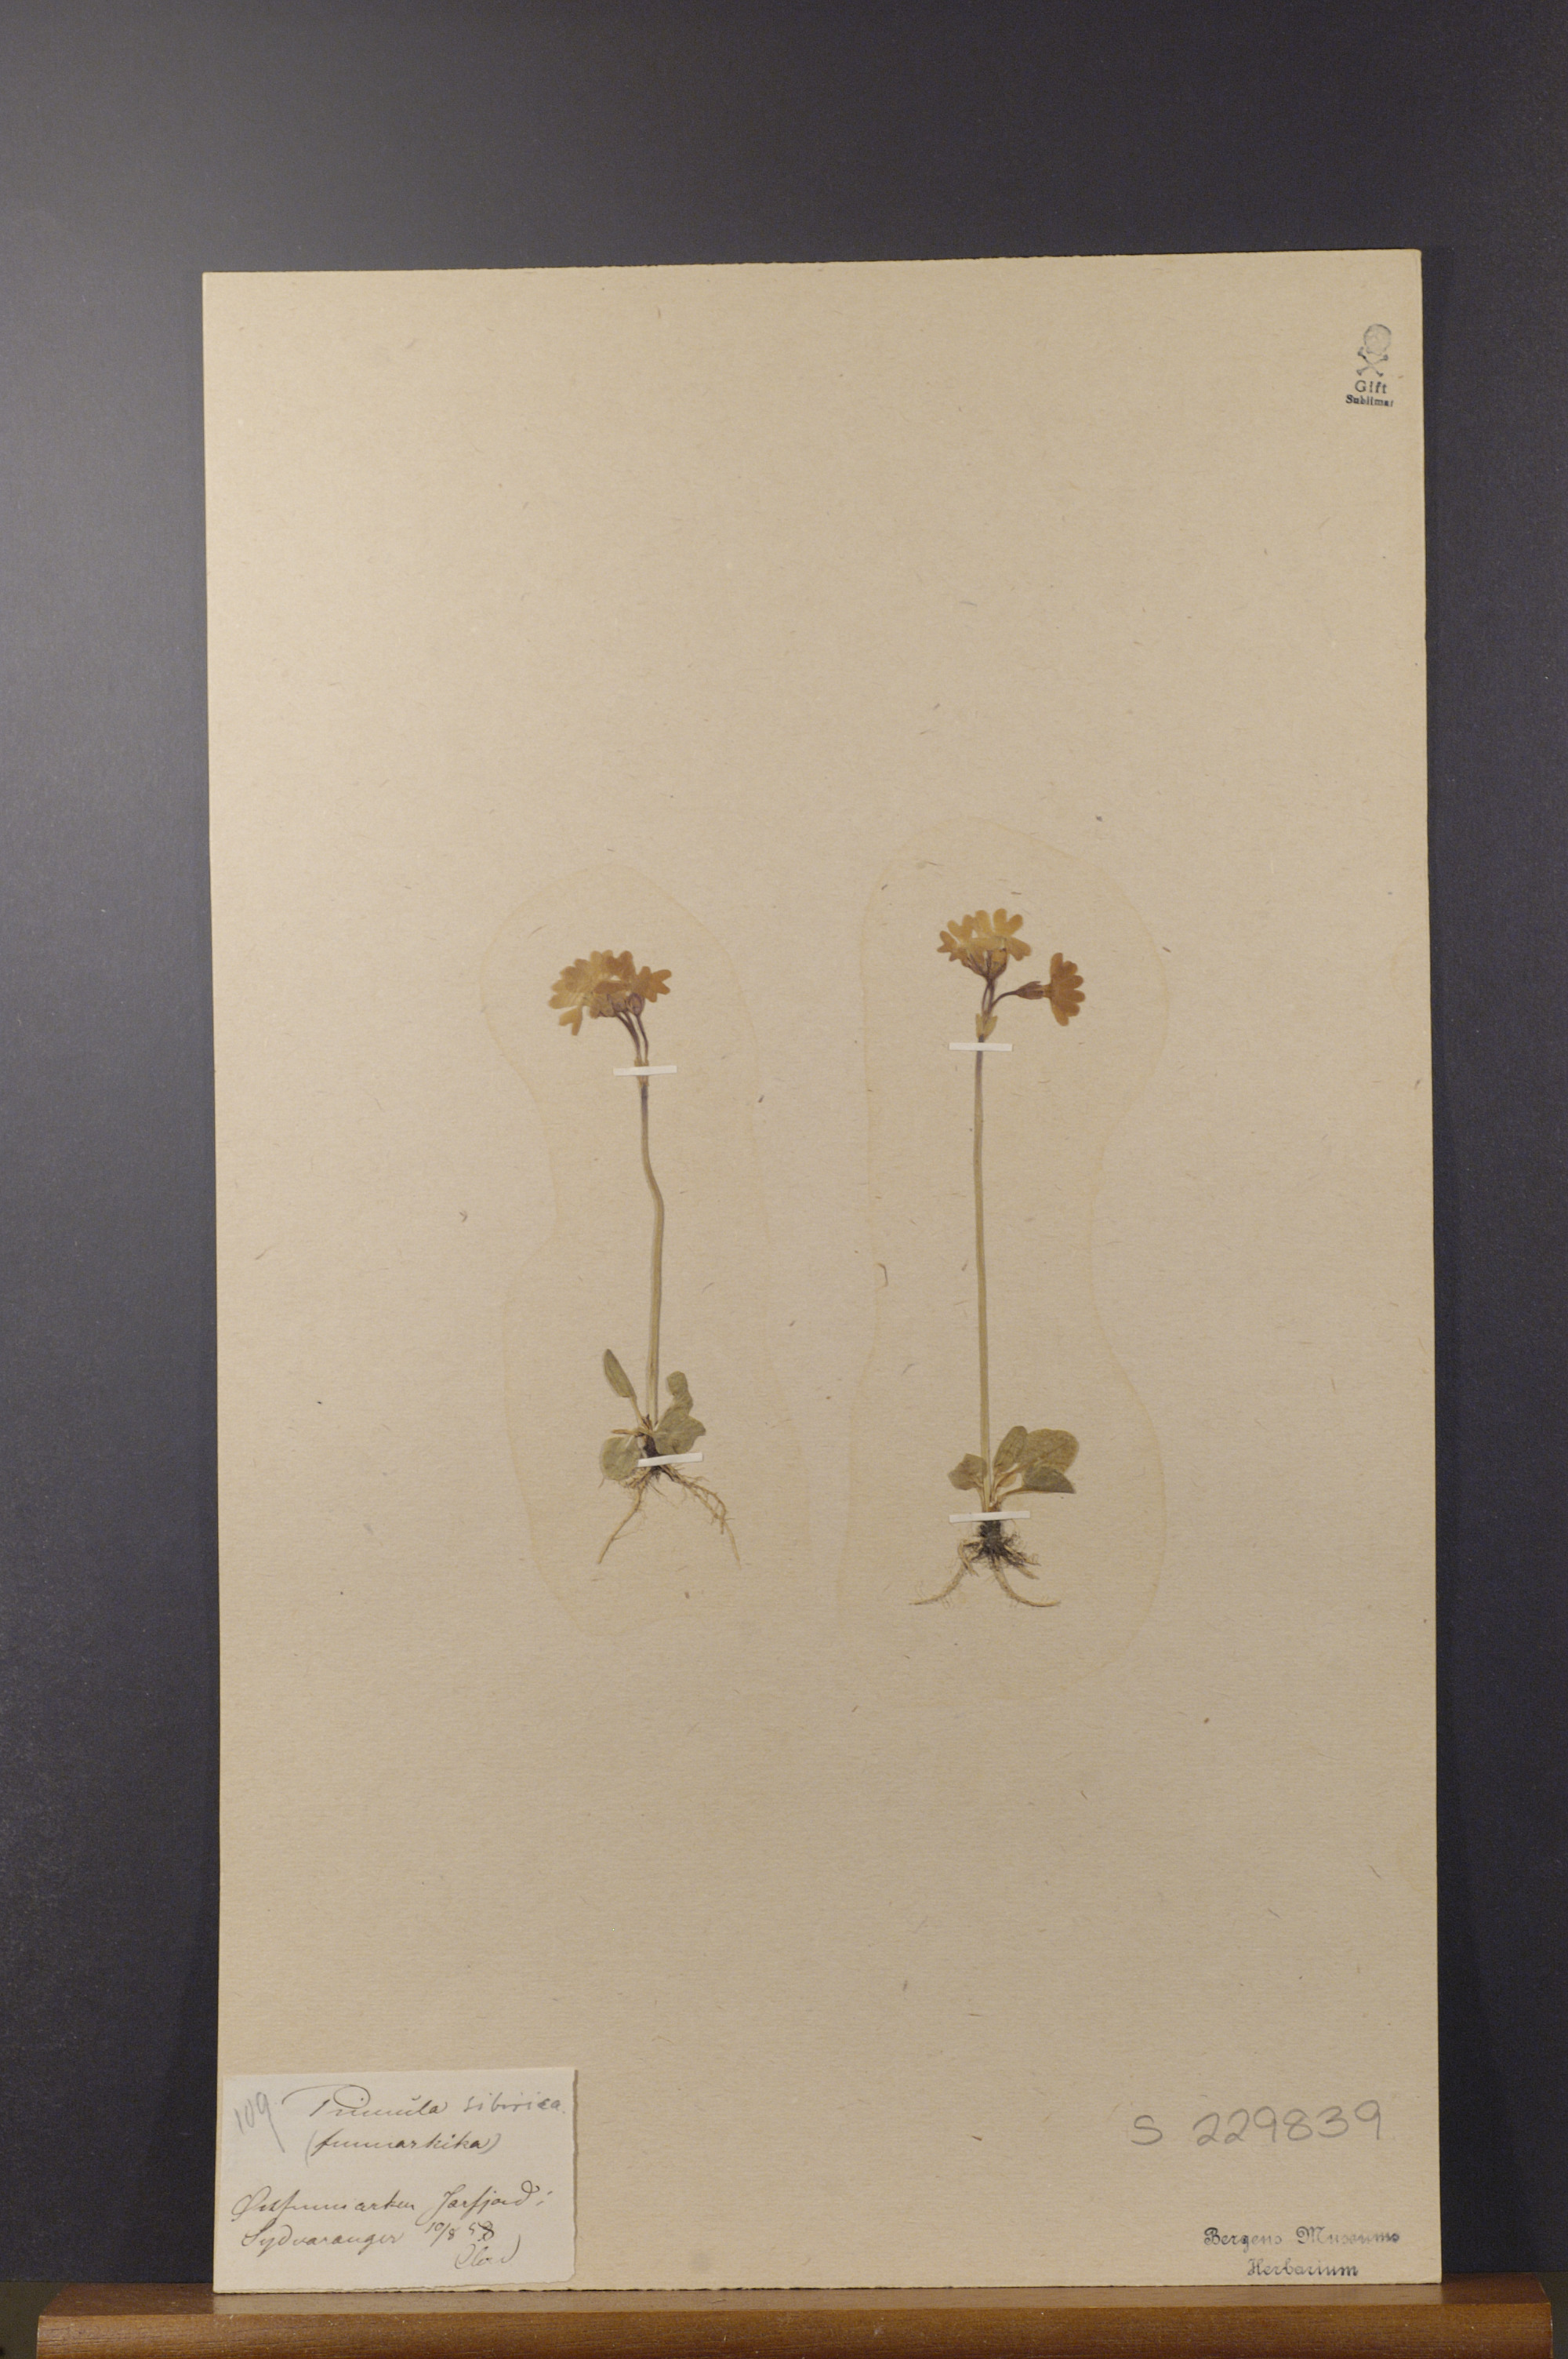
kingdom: Plantae
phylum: Tracheophyta
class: Magnoliopsida
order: Ericales
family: Primulaceae
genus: Primula
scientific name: Primula nutans
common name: Siberian primrose
